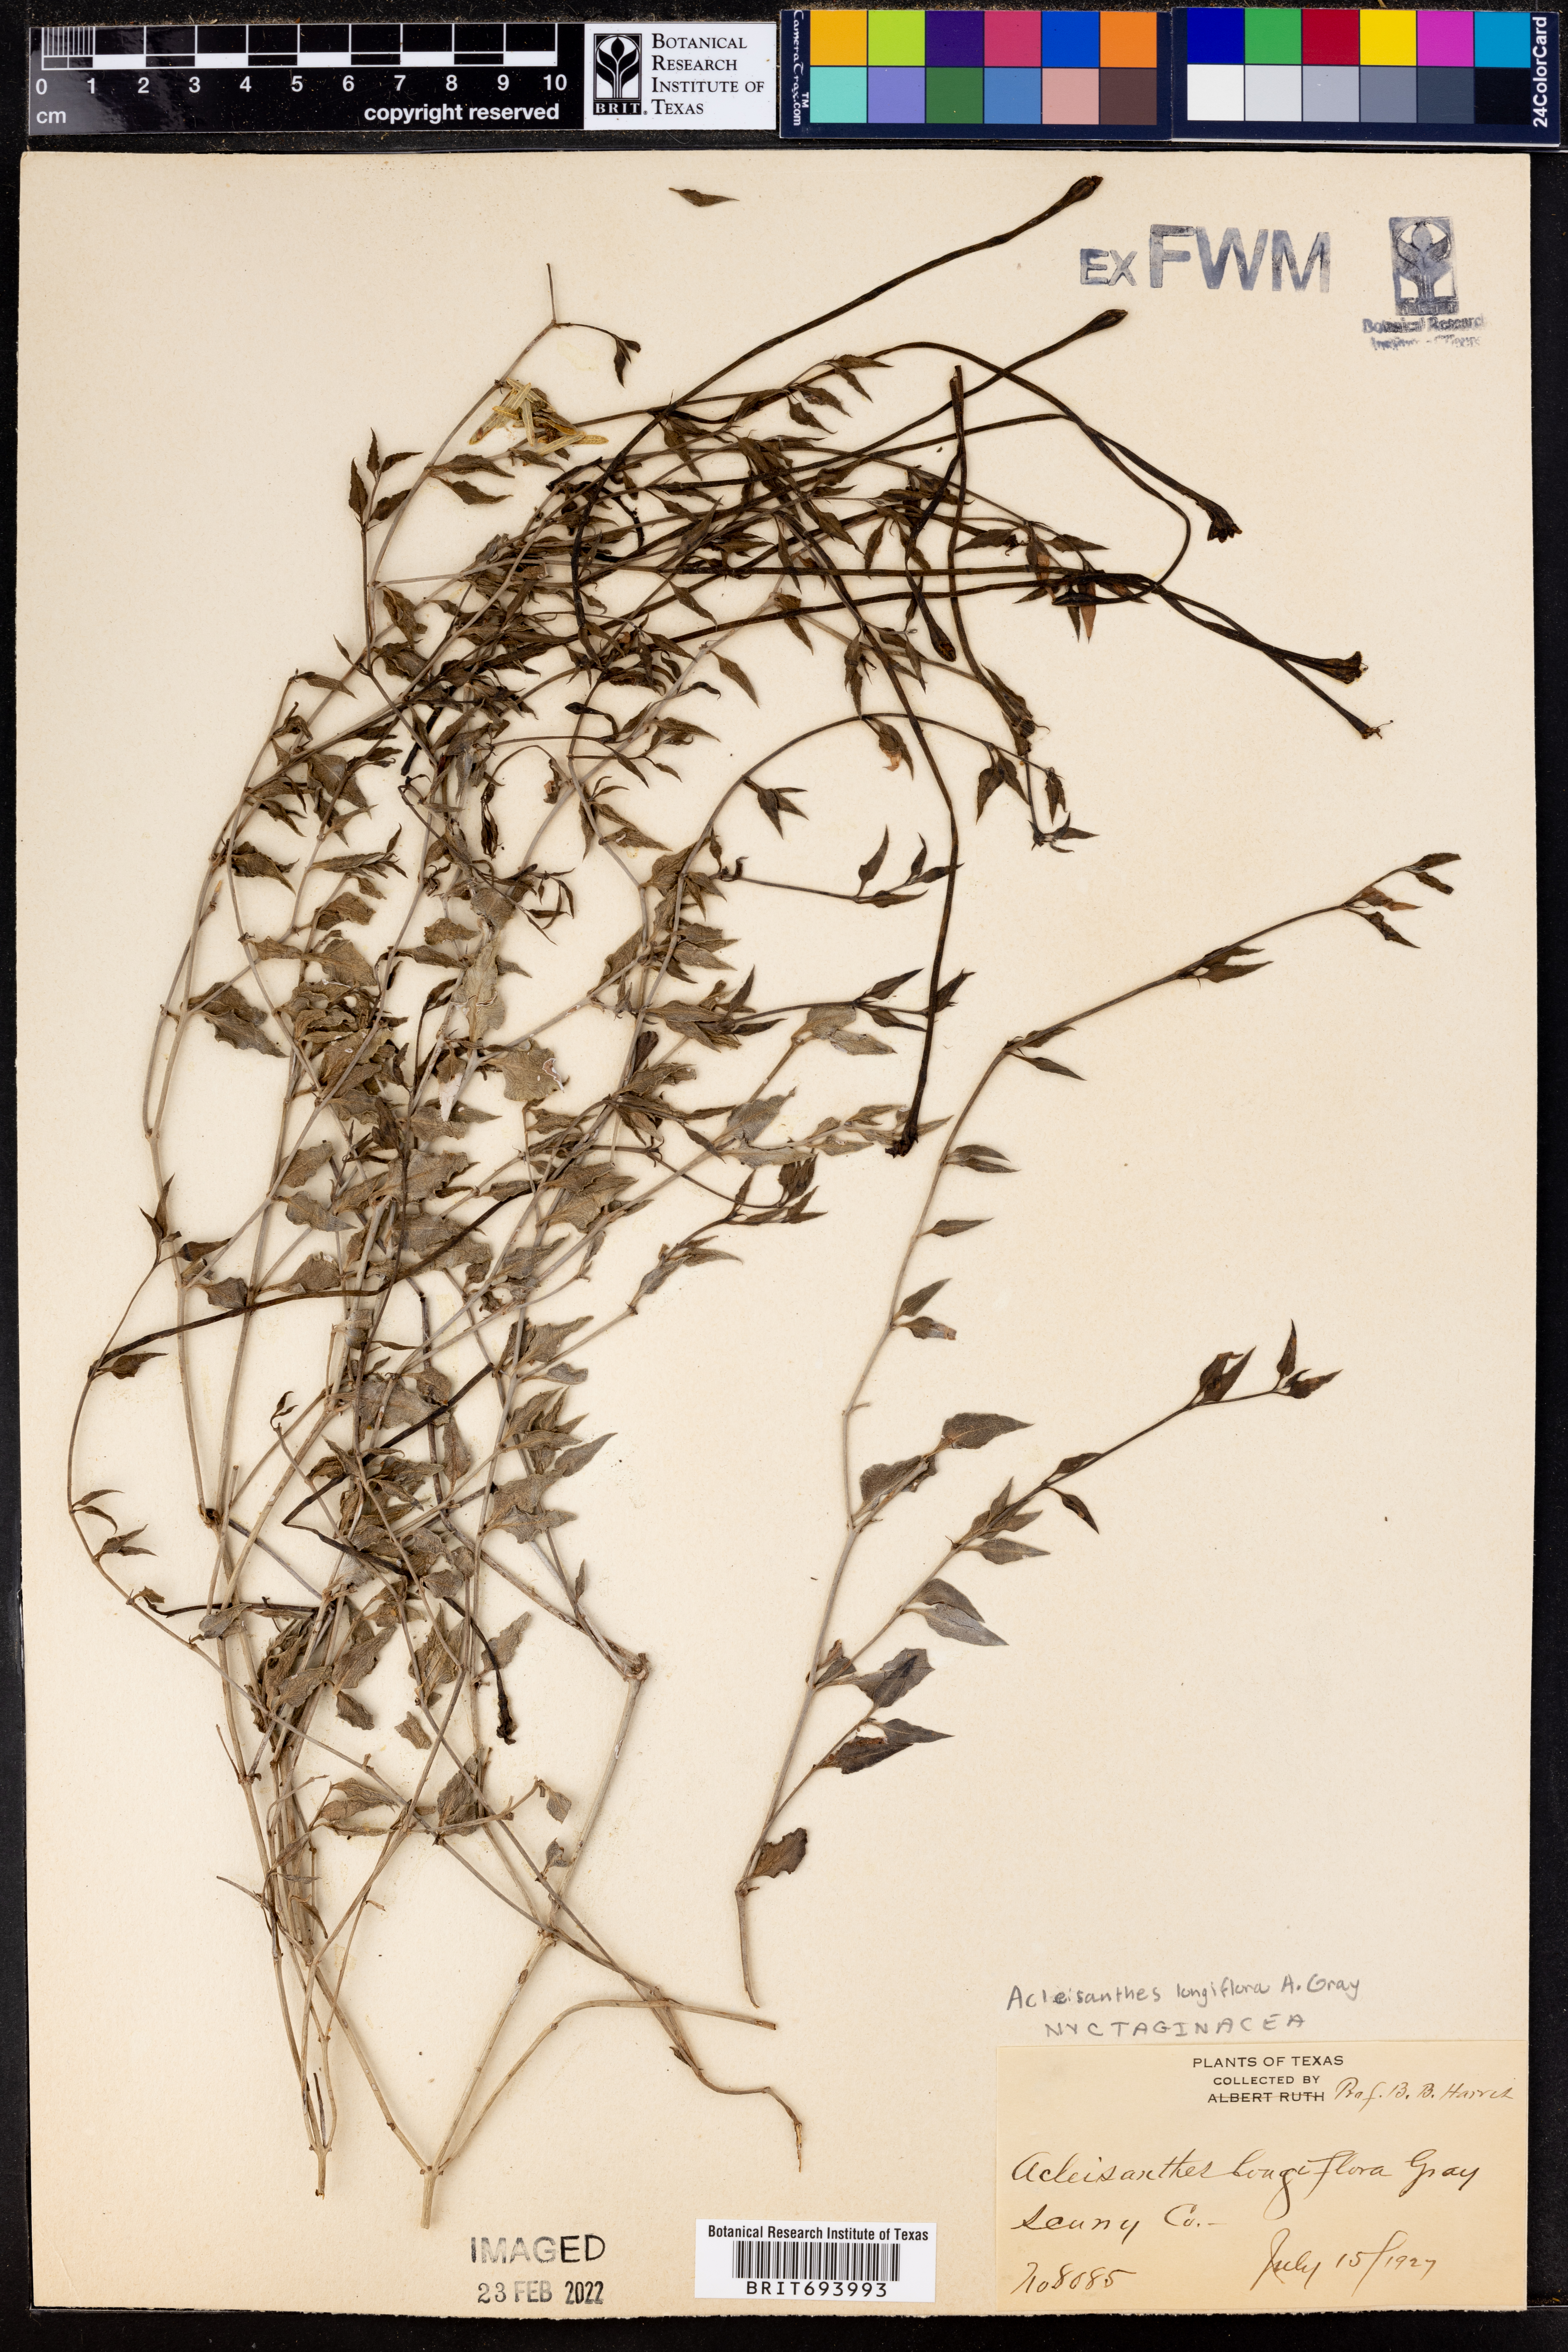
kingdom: Plantae
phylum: Tracheophyta
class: Magnoliopsida
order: Caryophyllales
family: Nyctaginaceae
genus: Acleisanthes
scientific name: Acleisanthes longiflora
